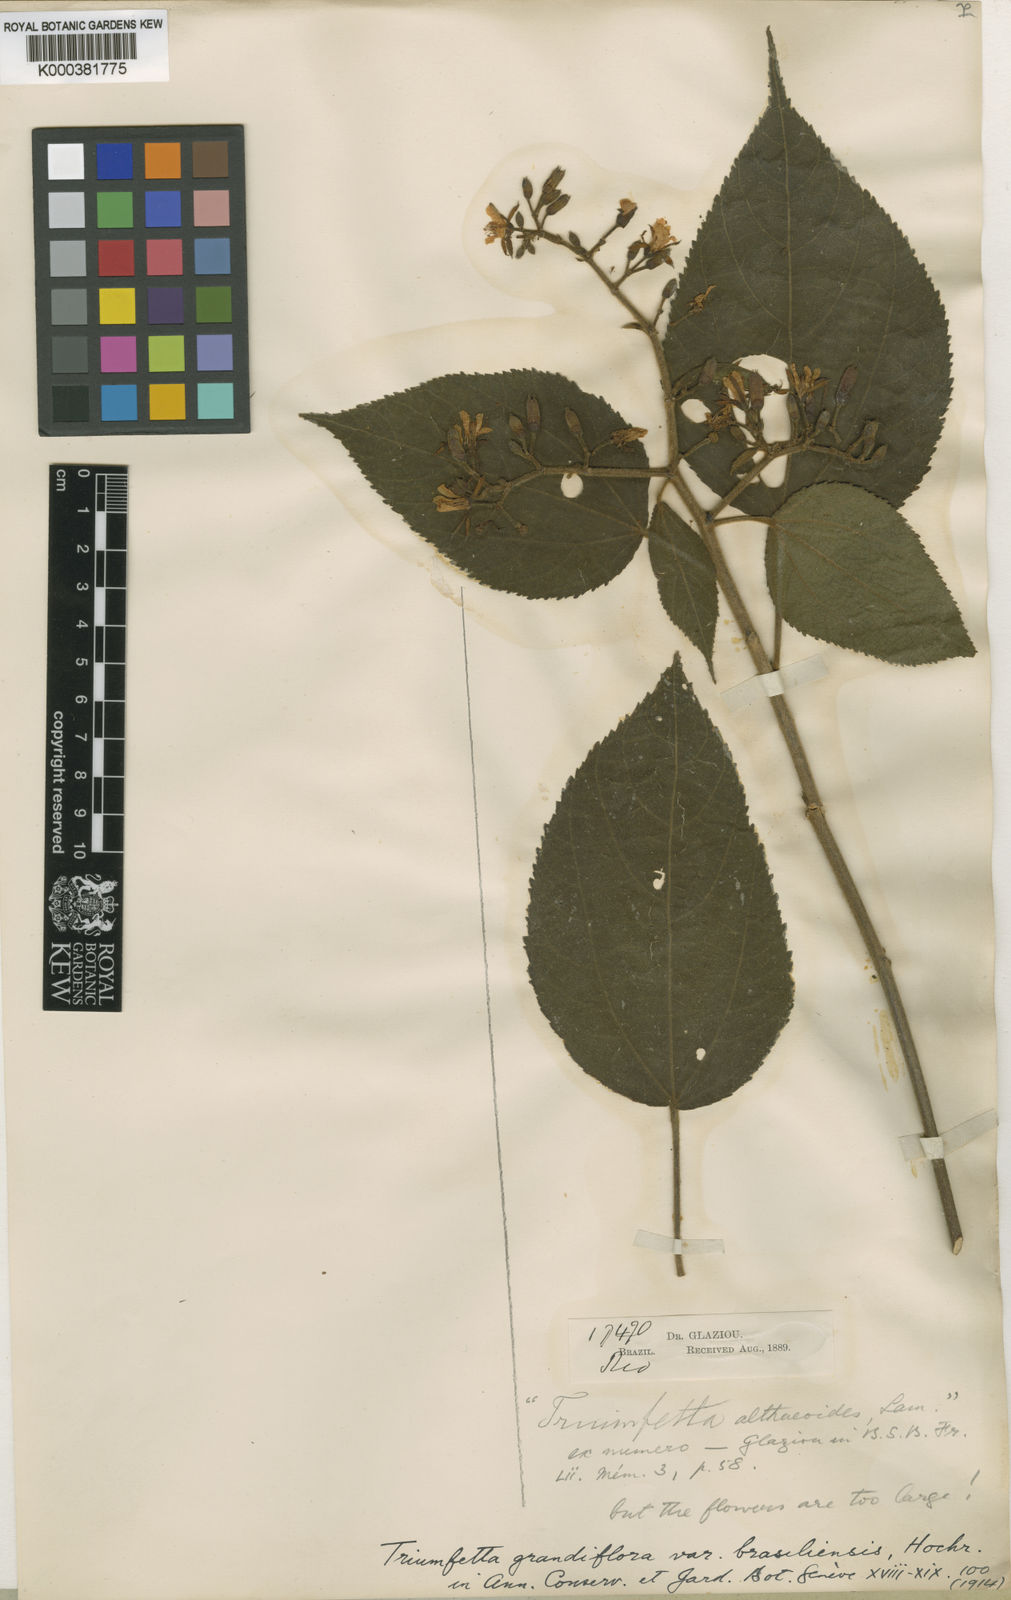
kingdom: Plantae
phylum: Tracheophyta
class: Magnoliopsida
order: Malvales
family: Malvaceae
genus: Triumfetta
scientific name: Triumfetta grandiflora
